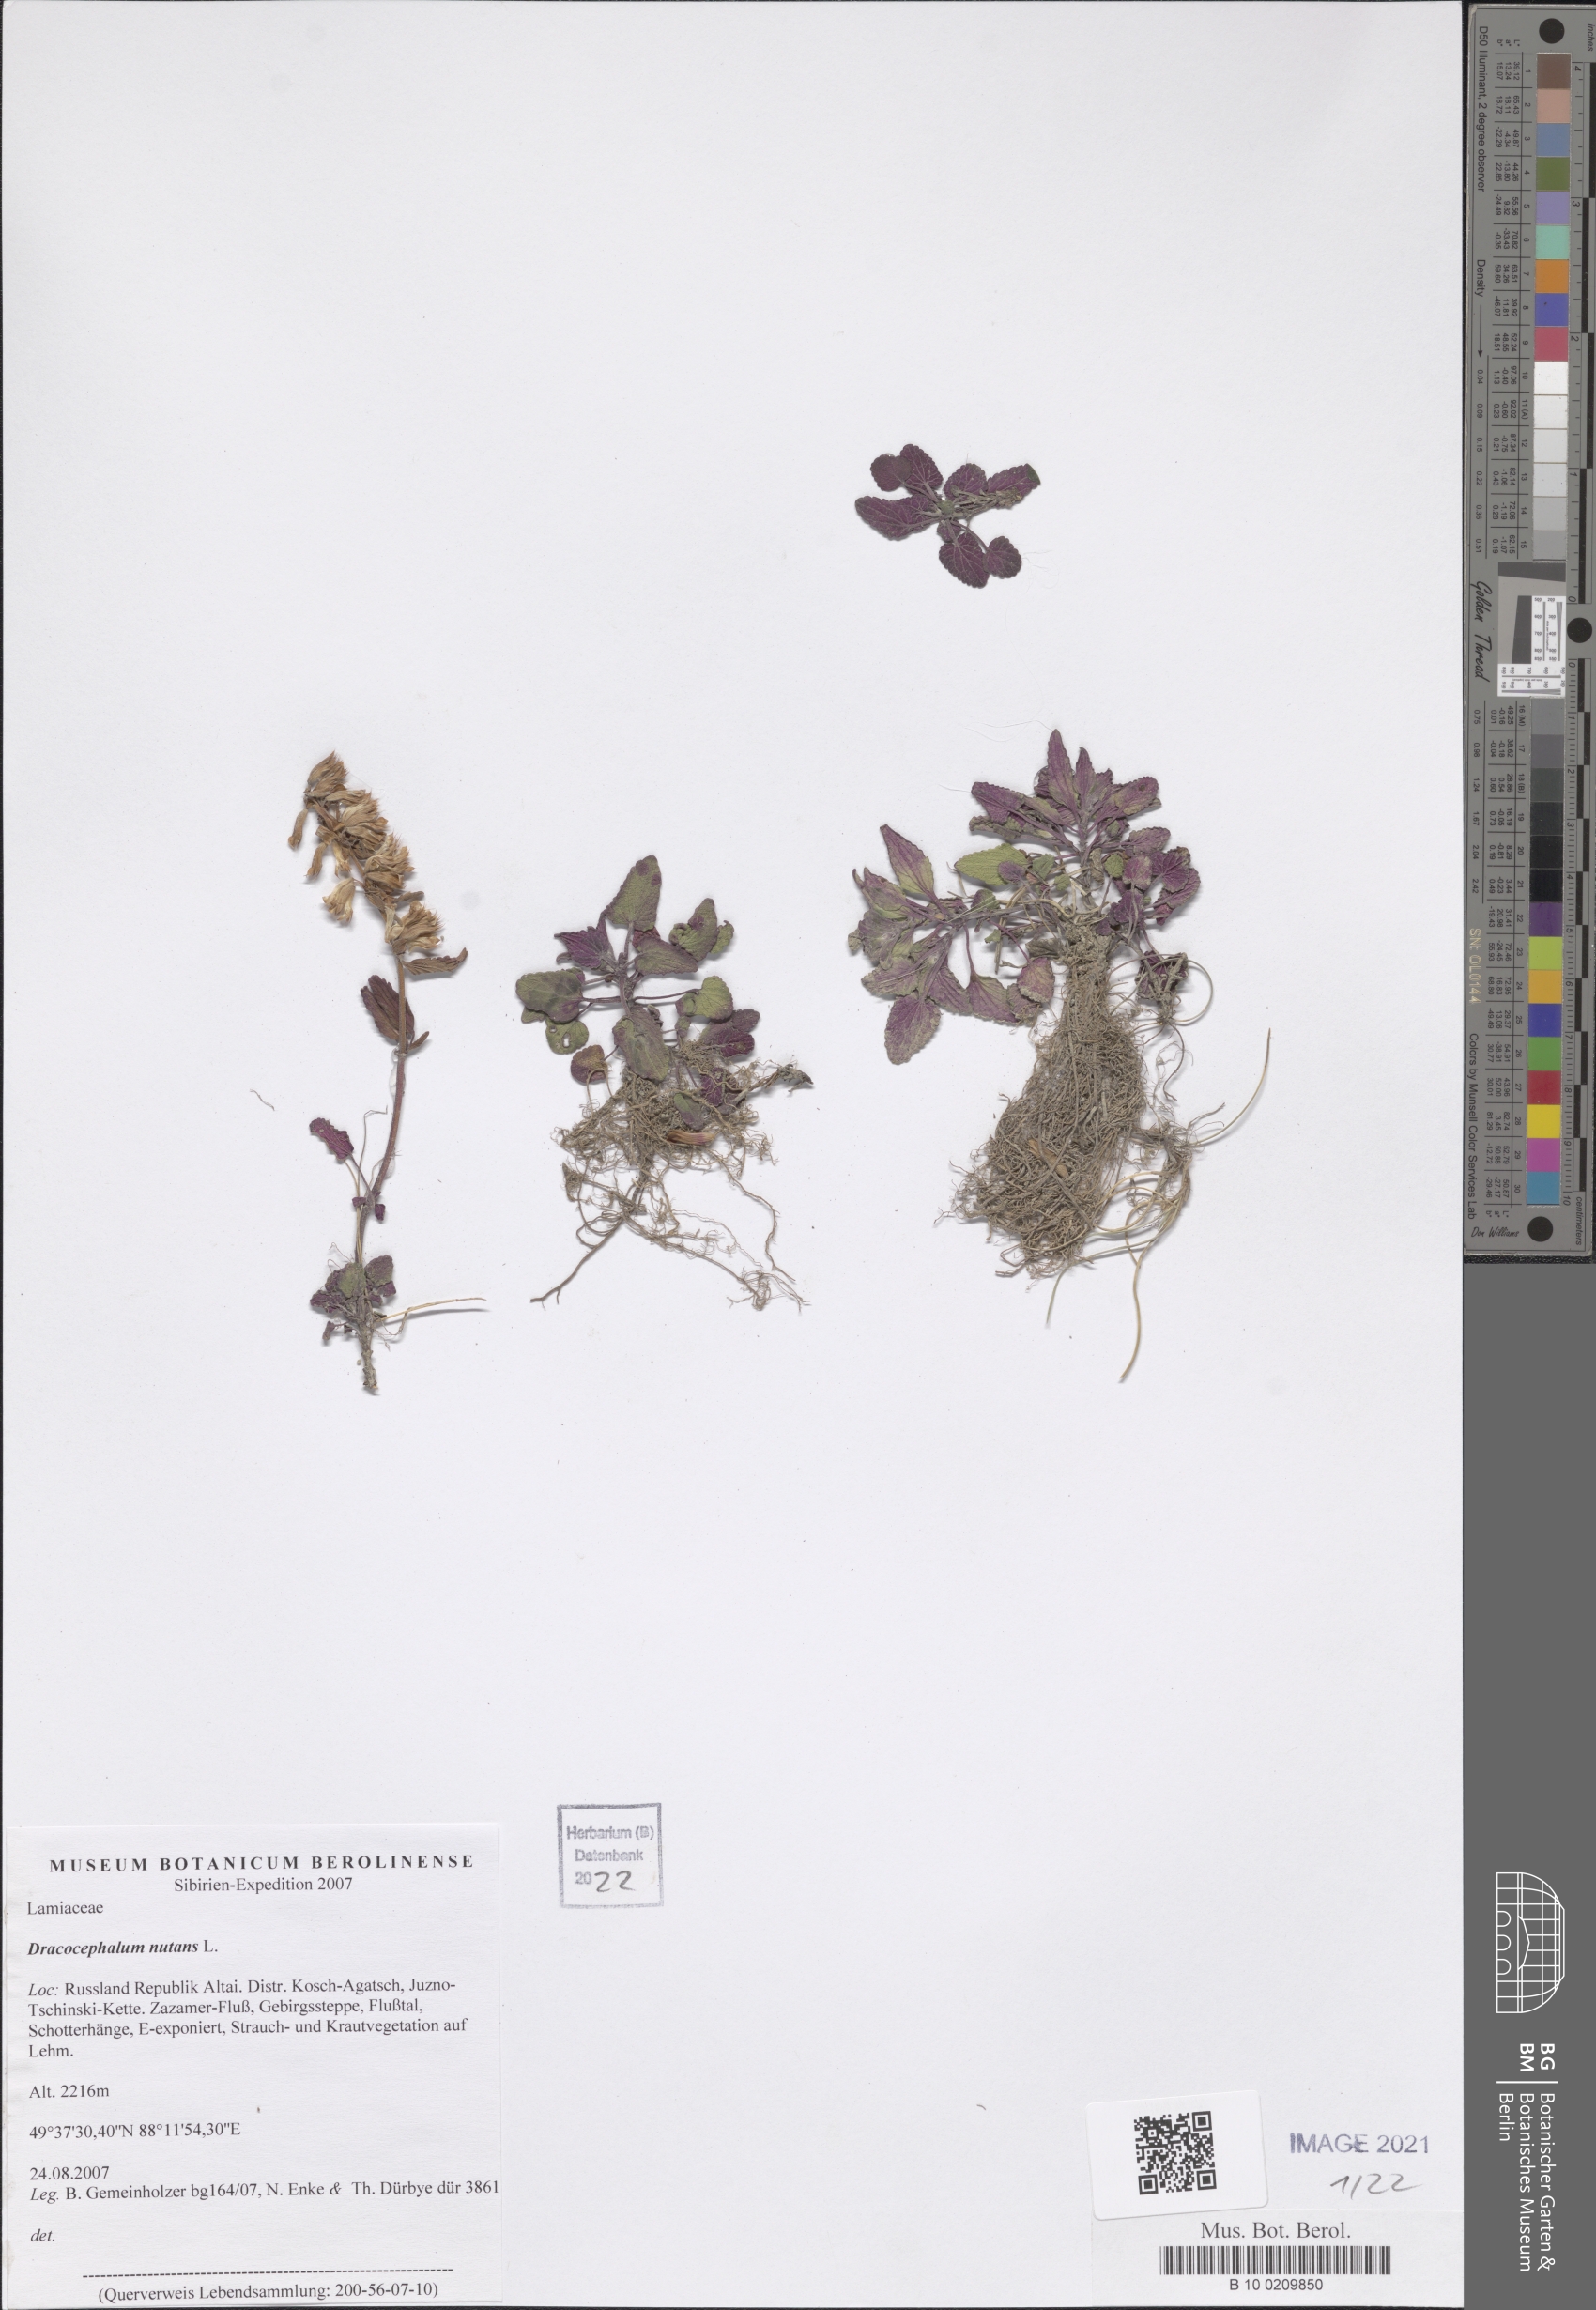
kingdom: Plantae
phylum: Tracheophyta
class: Magnoliopsida
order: Lamiales
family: Lamiaceae
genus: Dracocephalum
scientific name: Dracocephalum nutans
